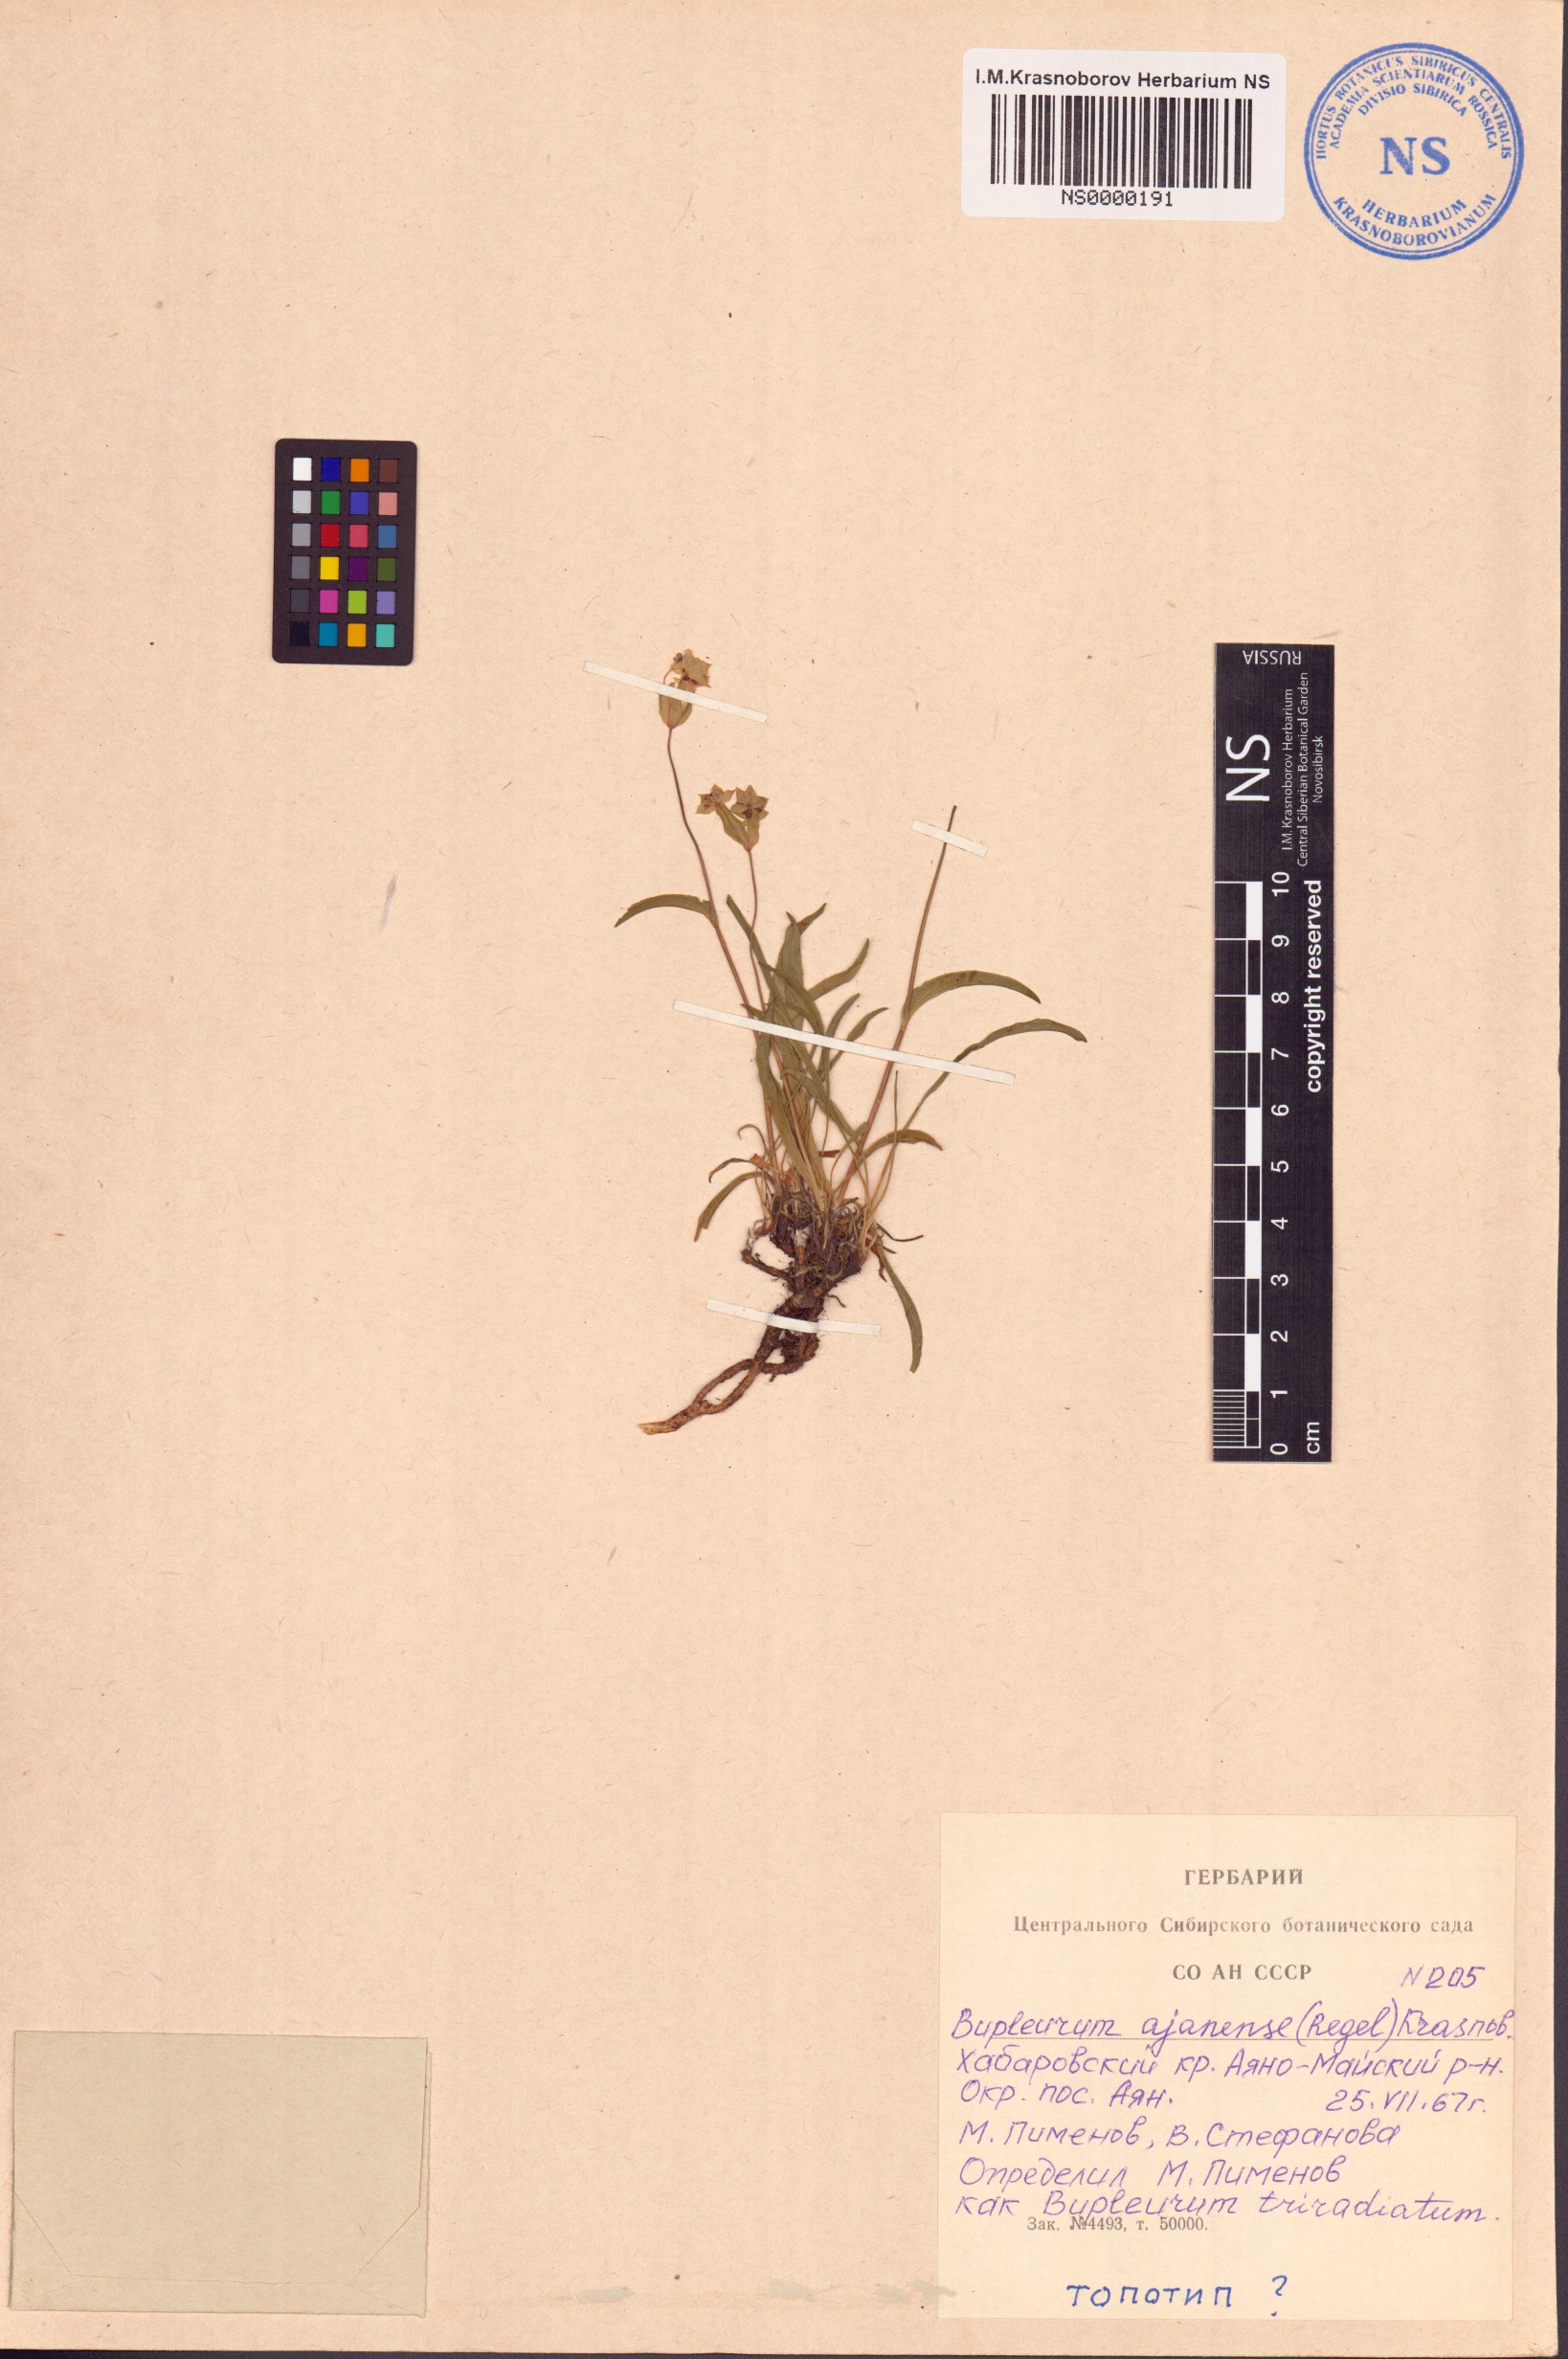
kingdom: Plantae
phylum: Tracheophyta
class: Magnoliopsida
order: Apiales
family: Apiaceae
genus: Bupleurum
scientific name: Bupleurum triradiatum
